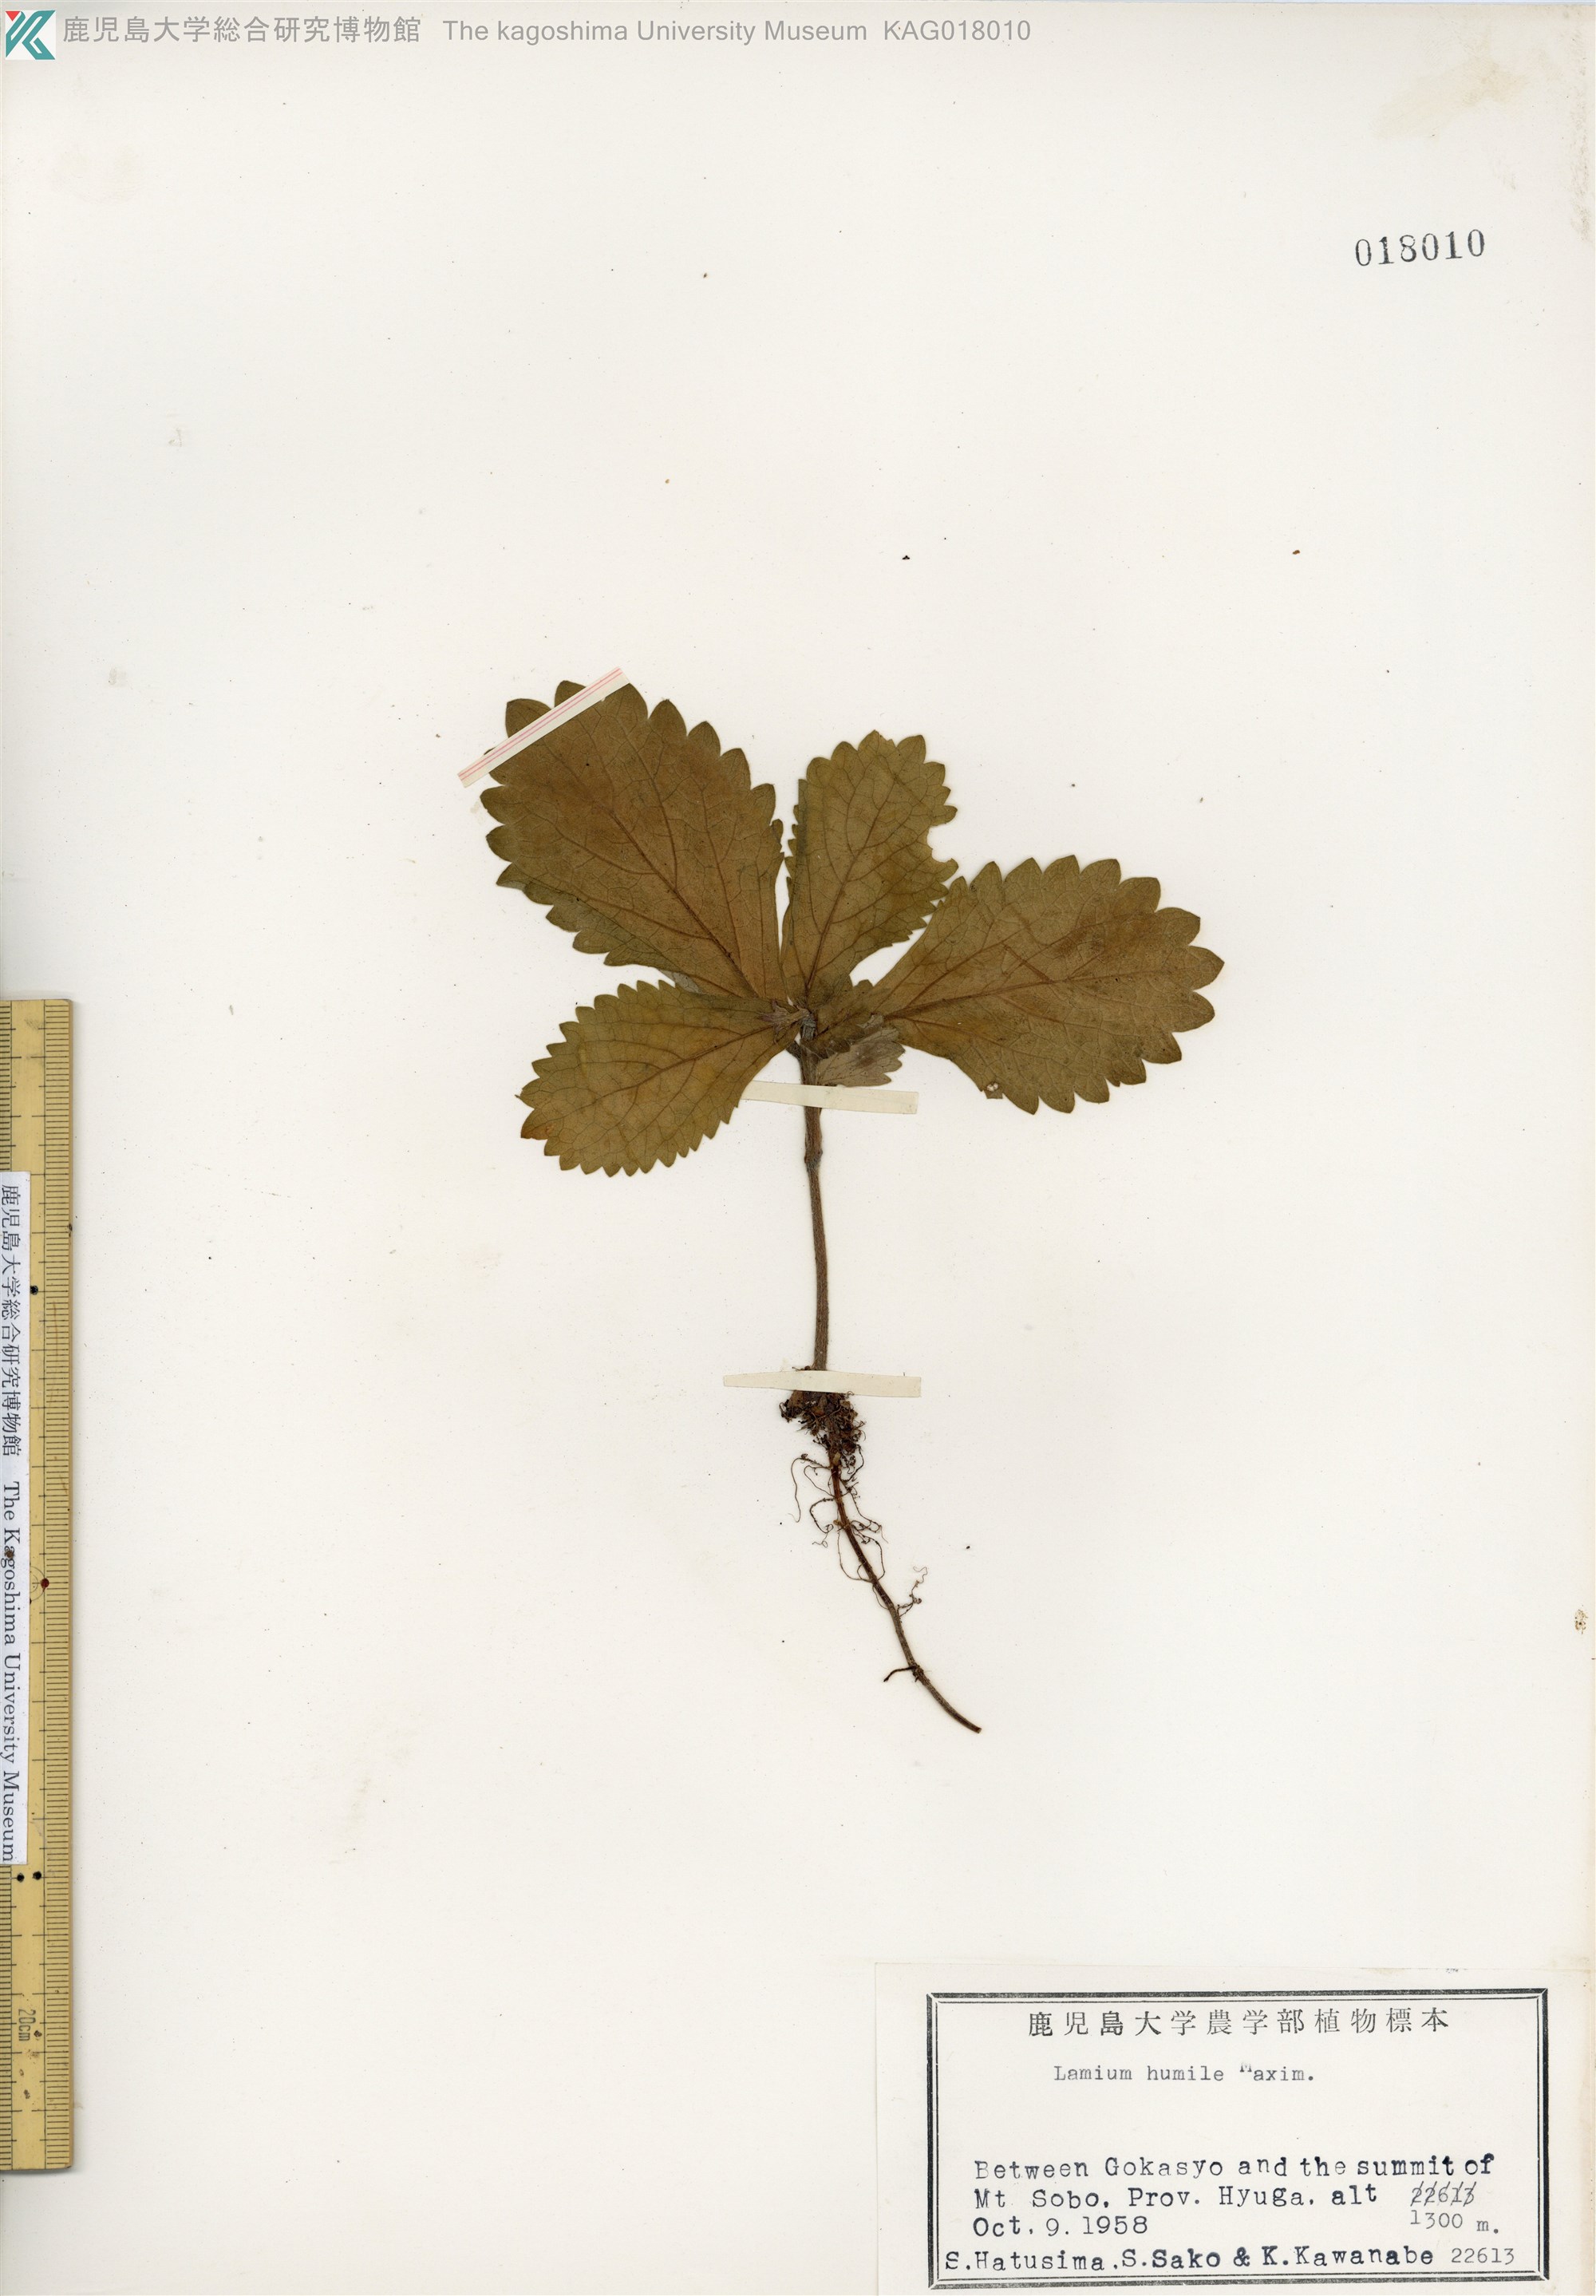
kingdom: Plantae
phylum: Tracheophyta
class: Magnoliopsida
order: Lamiales
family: Lamiaceae
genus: Ajugoides
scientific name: Ajugoides humilis
